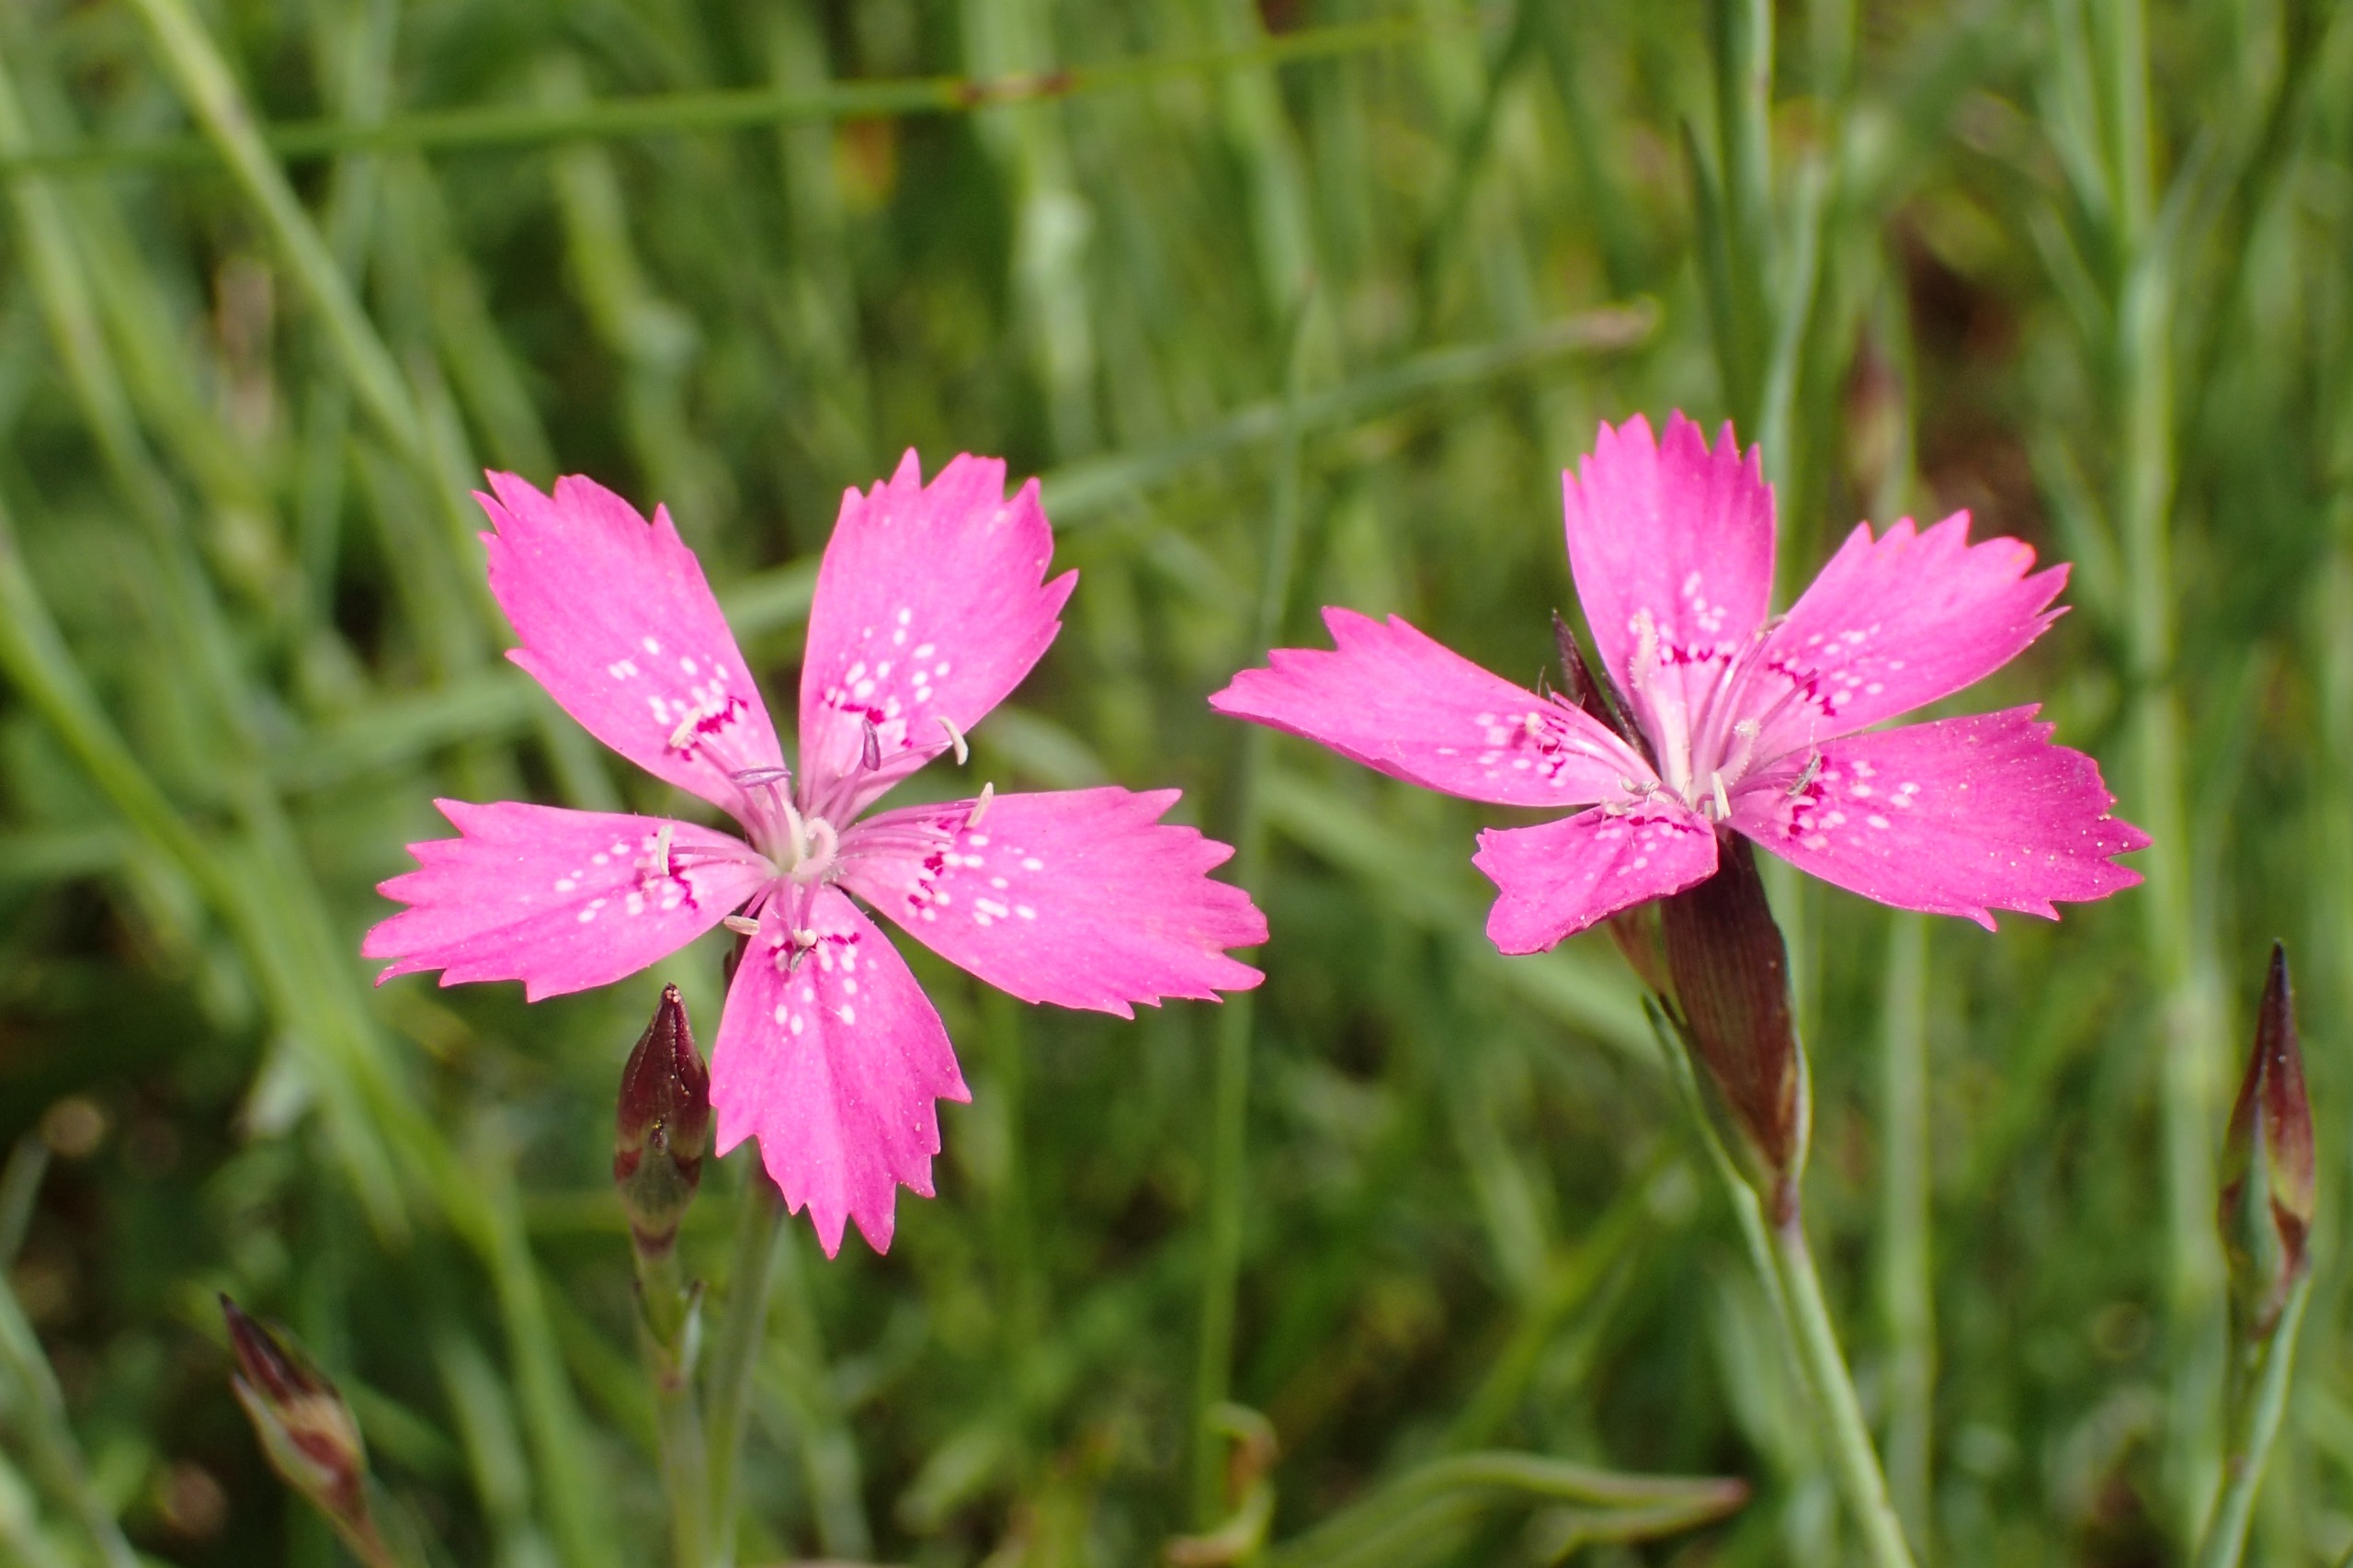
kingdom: Plantae
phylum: Tracheophyta
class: Magnoliopsida
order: Caryophyllales
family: Caryophyllaceae
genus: Dianthus
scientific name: Dianthus deltoides
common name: Bakke-nellike
